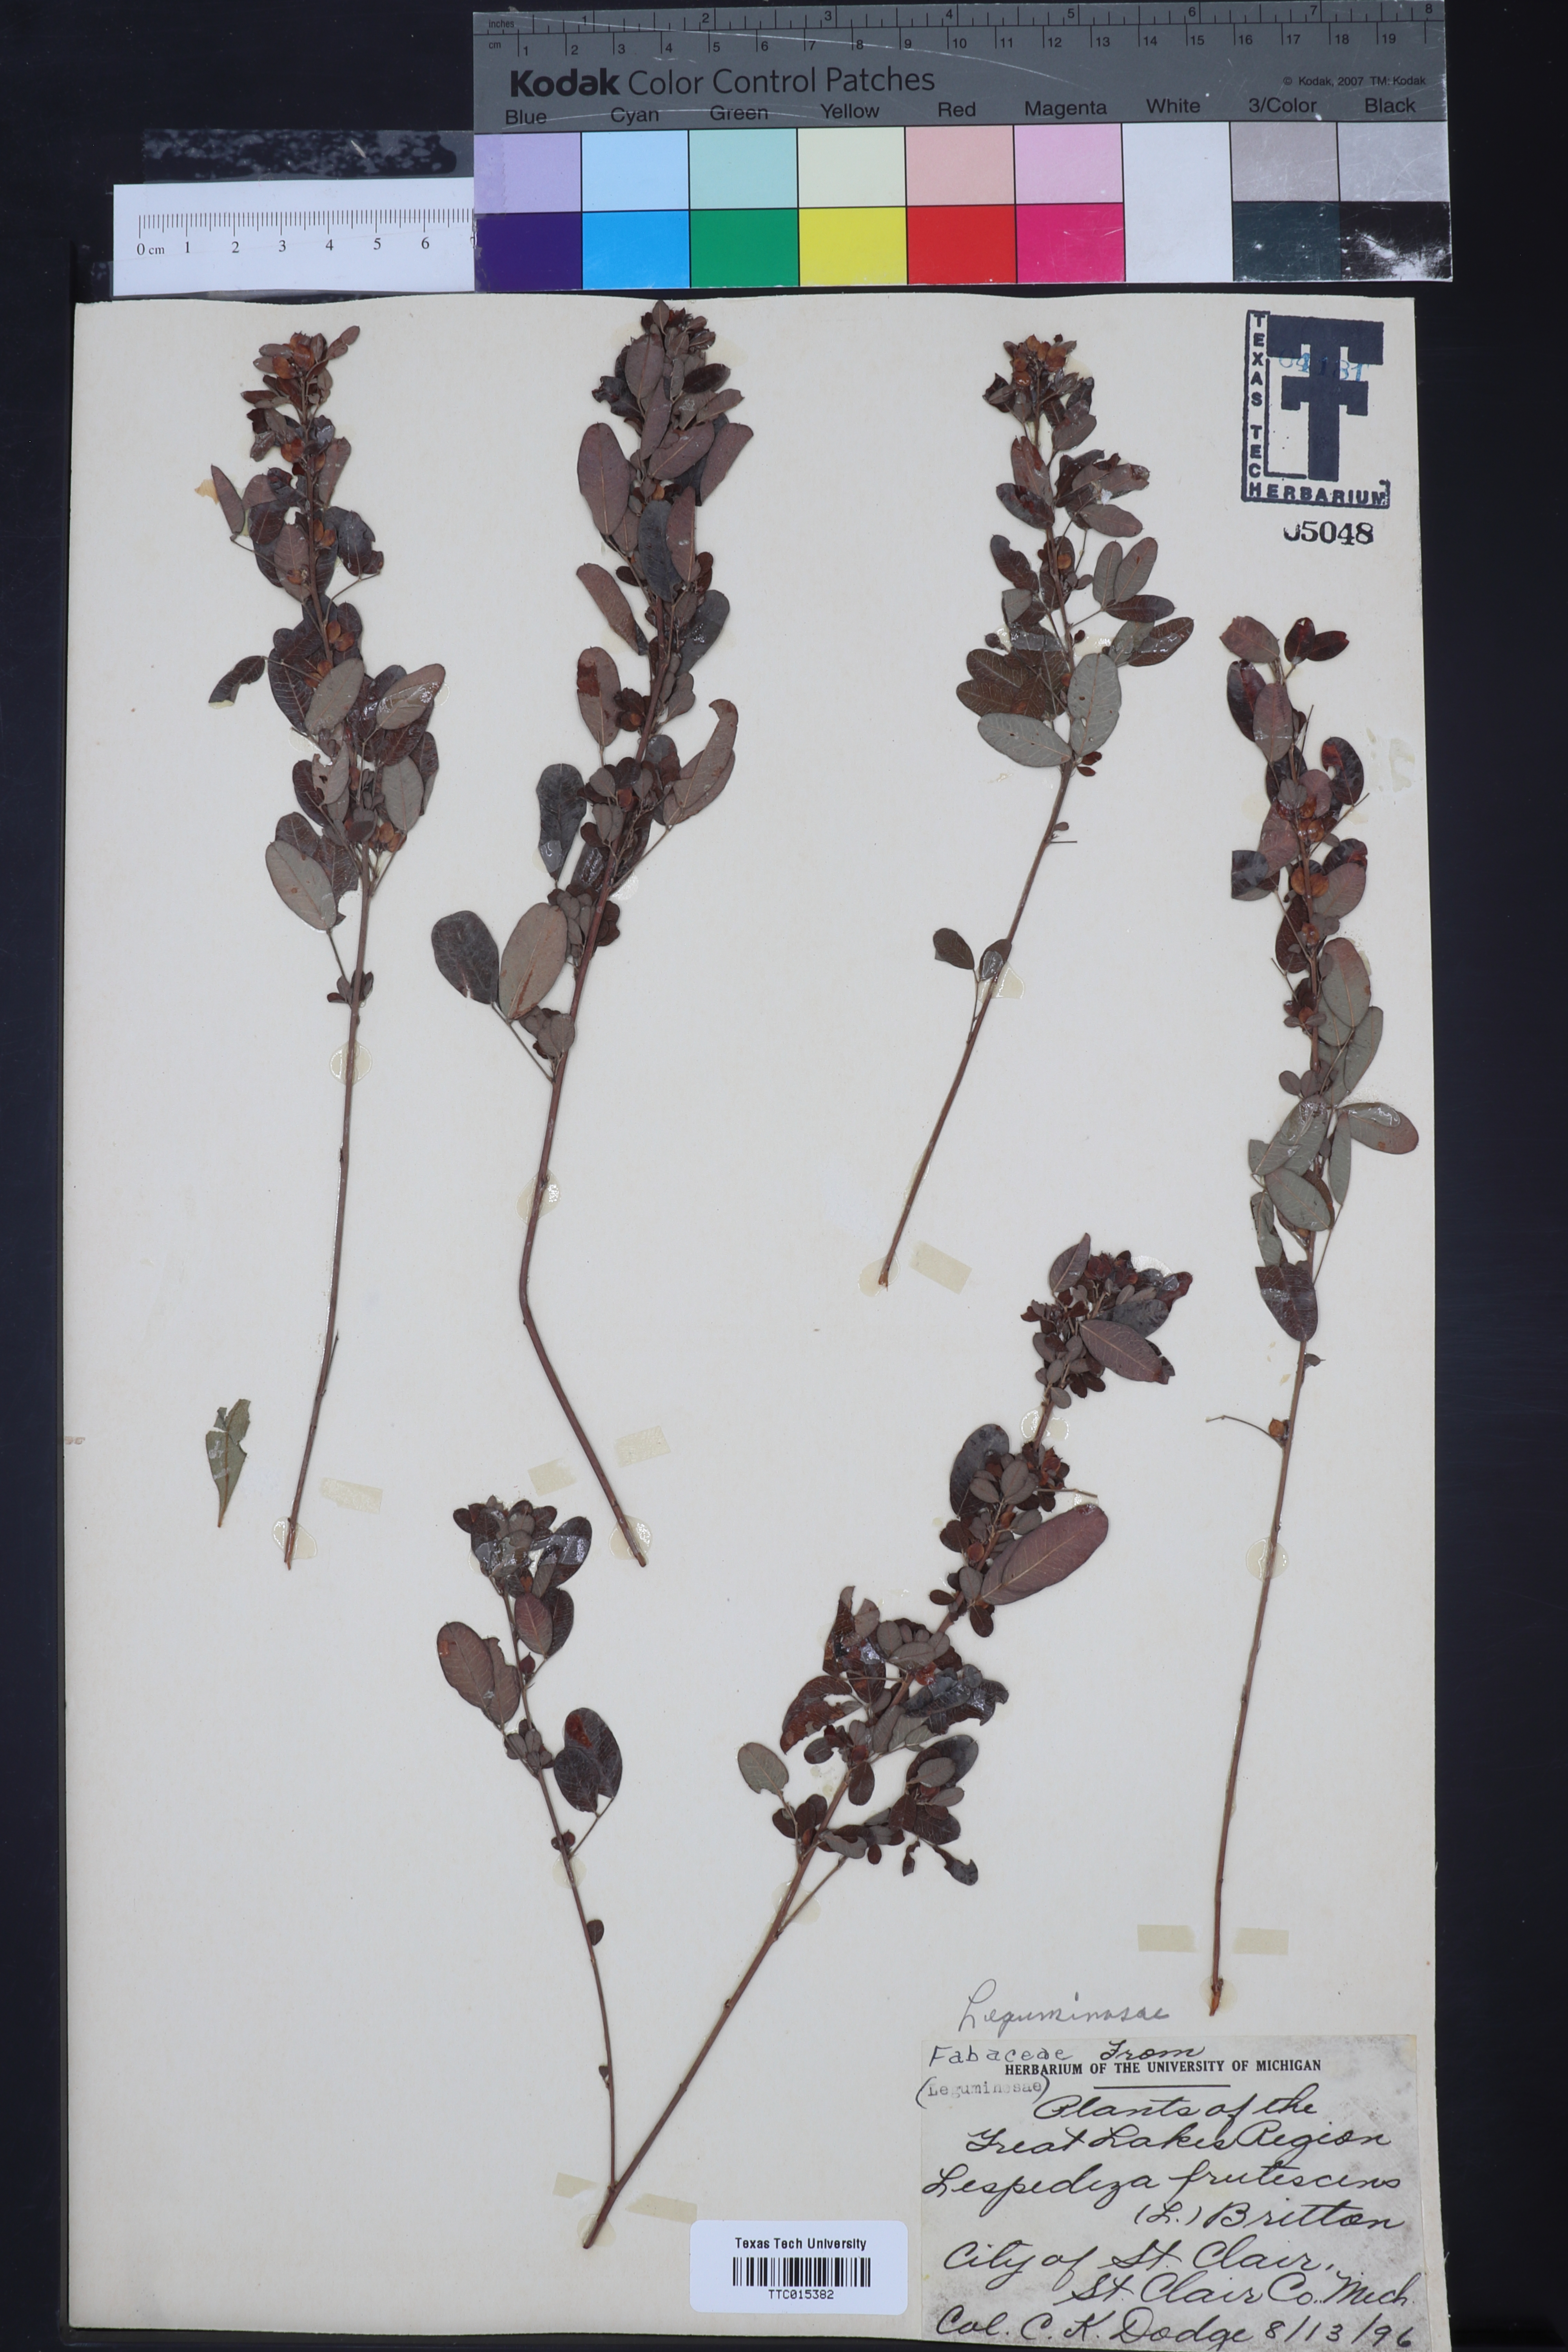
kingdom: Plantae
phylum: Tracheophyta
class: Magnoliopsida
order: Fabales
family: Fabaceae
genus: Lespedeza
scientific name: Lespedeza hirta
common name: Hairy lespedeza
